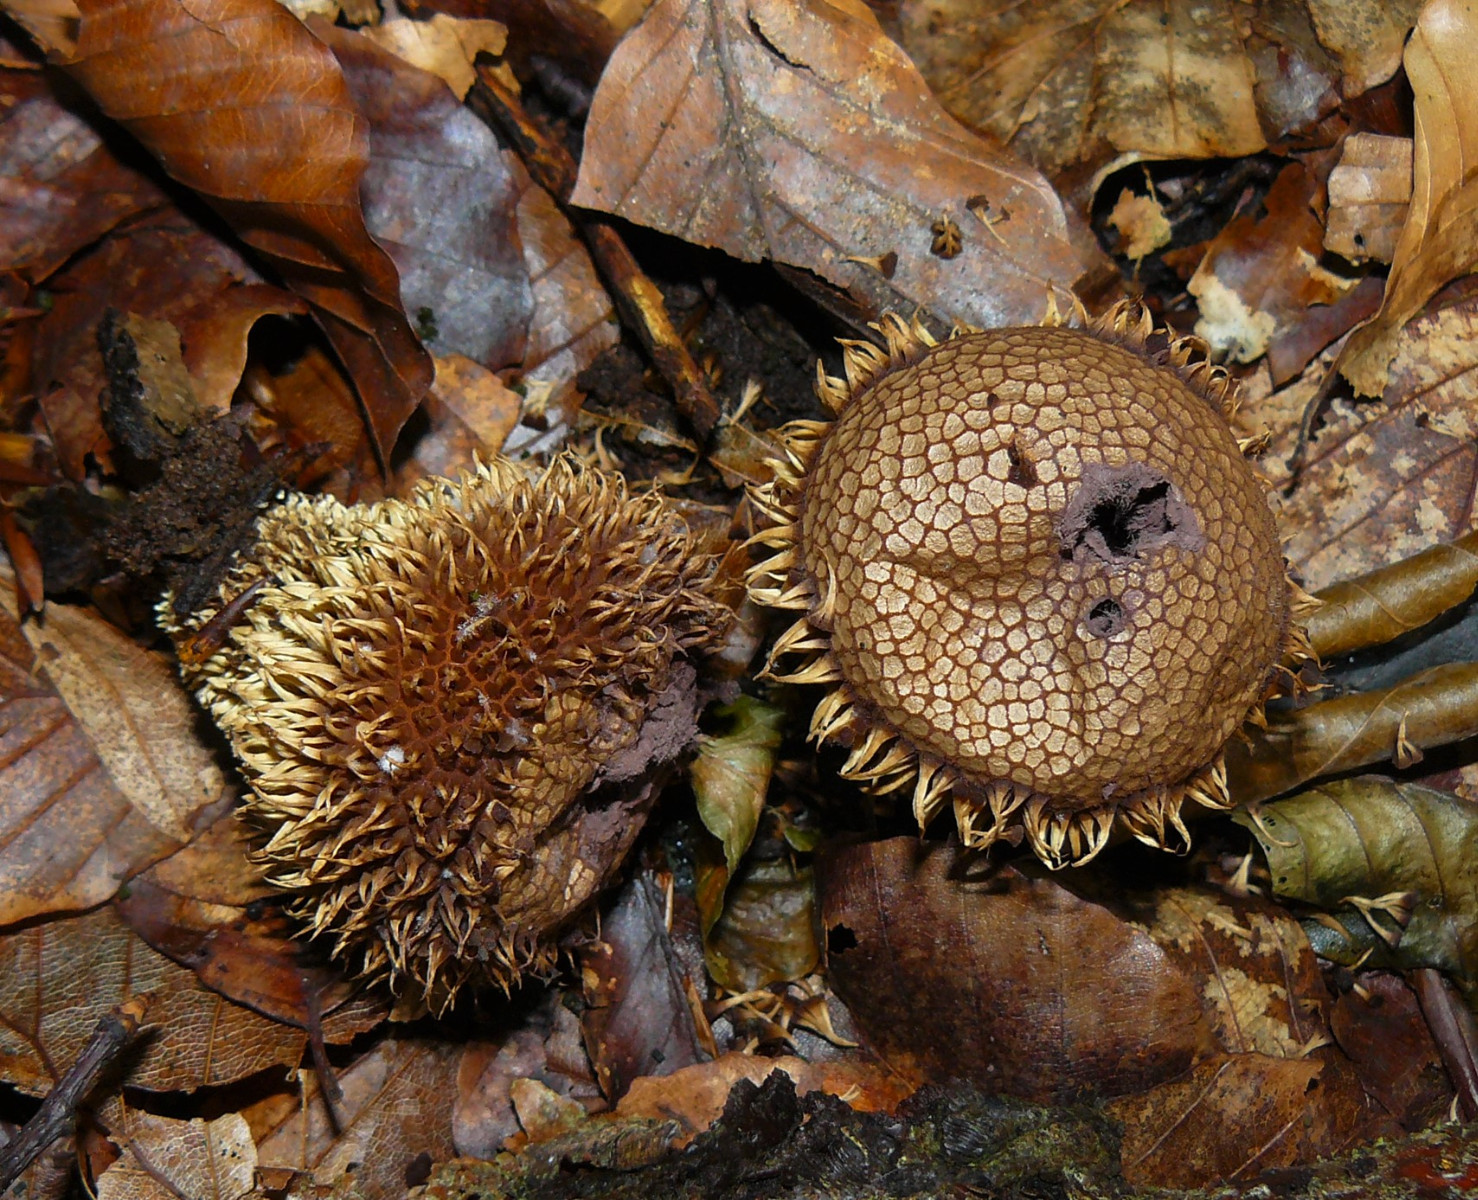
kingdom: Fungi
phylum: Basidiomycota
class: Agaricomycetes
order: Agaricales
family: Lycoperdaceae
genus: Lycoperdon
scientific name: Lycoperdon echinatum
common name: pindsvine-støvbold
